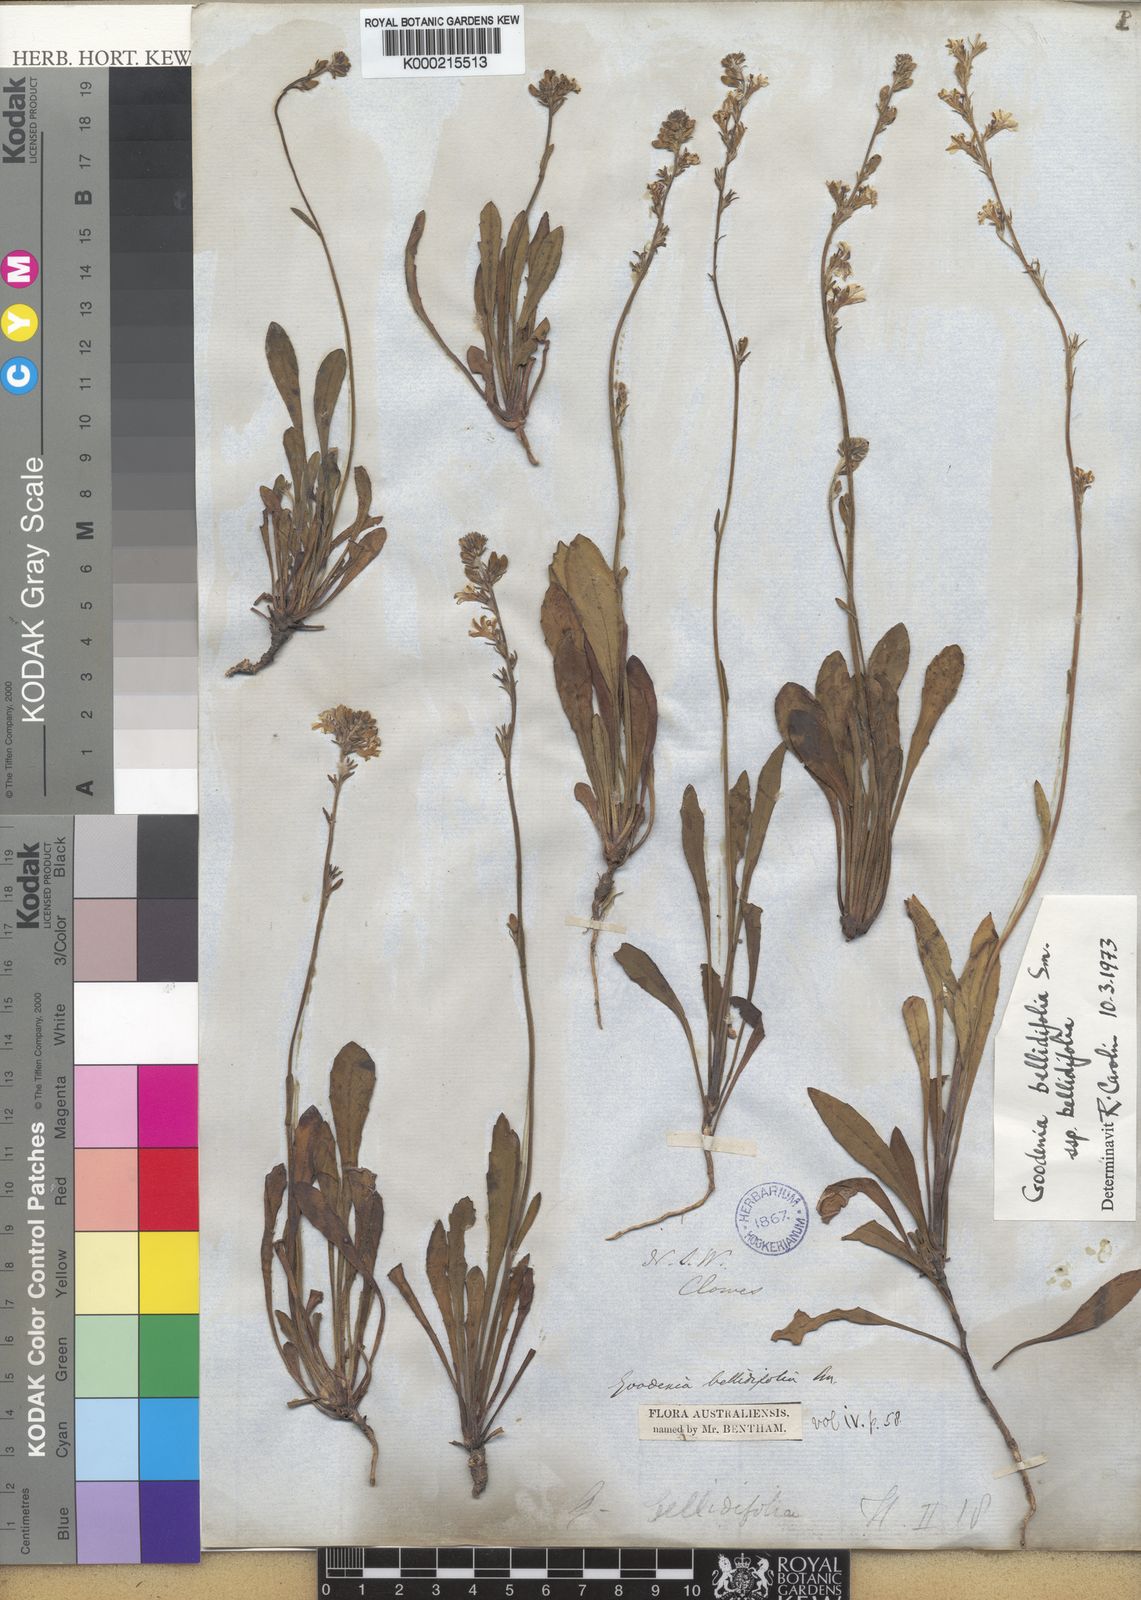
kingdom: Plantae
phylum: Tracheophyta
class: Magnoliopsida
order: Asterales
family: Goodeniaceae
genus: Goodenia
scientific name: Goodenia
